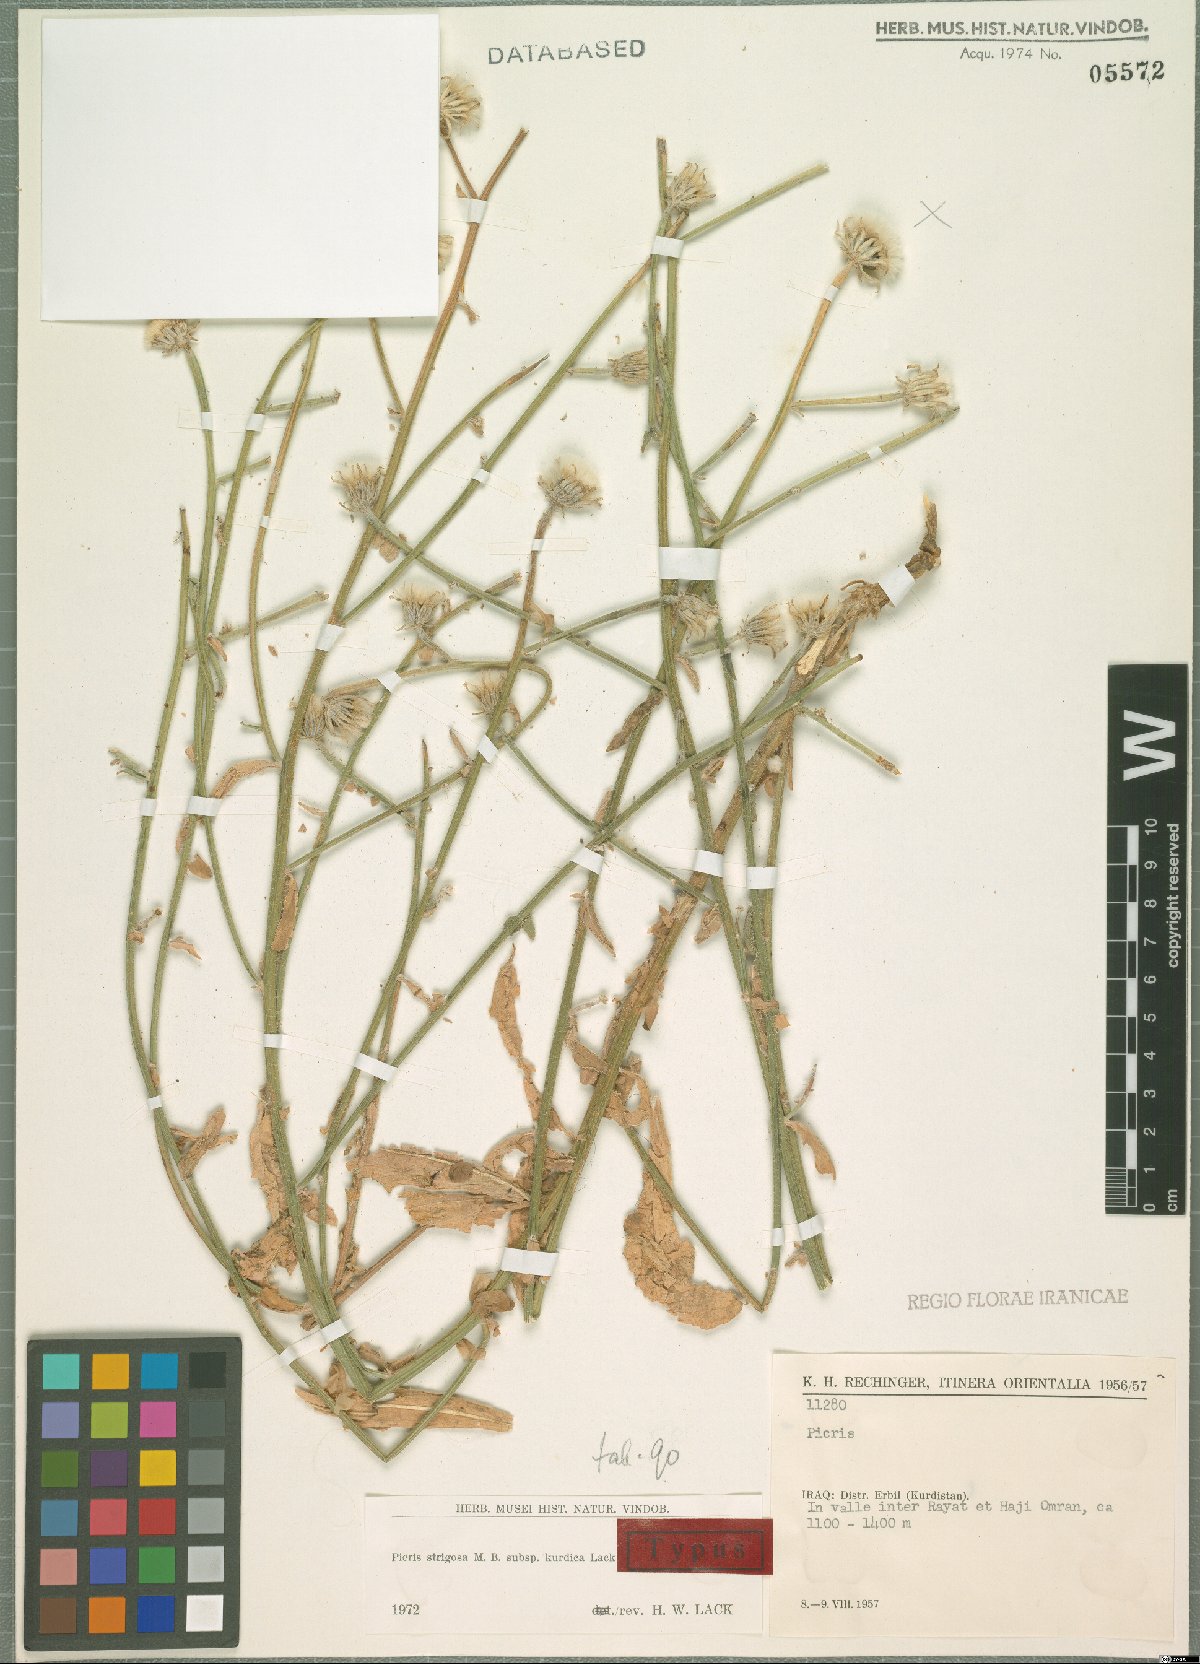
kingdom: Plantae
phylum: Tracheophyta
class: Magnoliopsida
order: Asterales
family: Asteraceae
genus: Picris
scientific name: Picris strigosa
